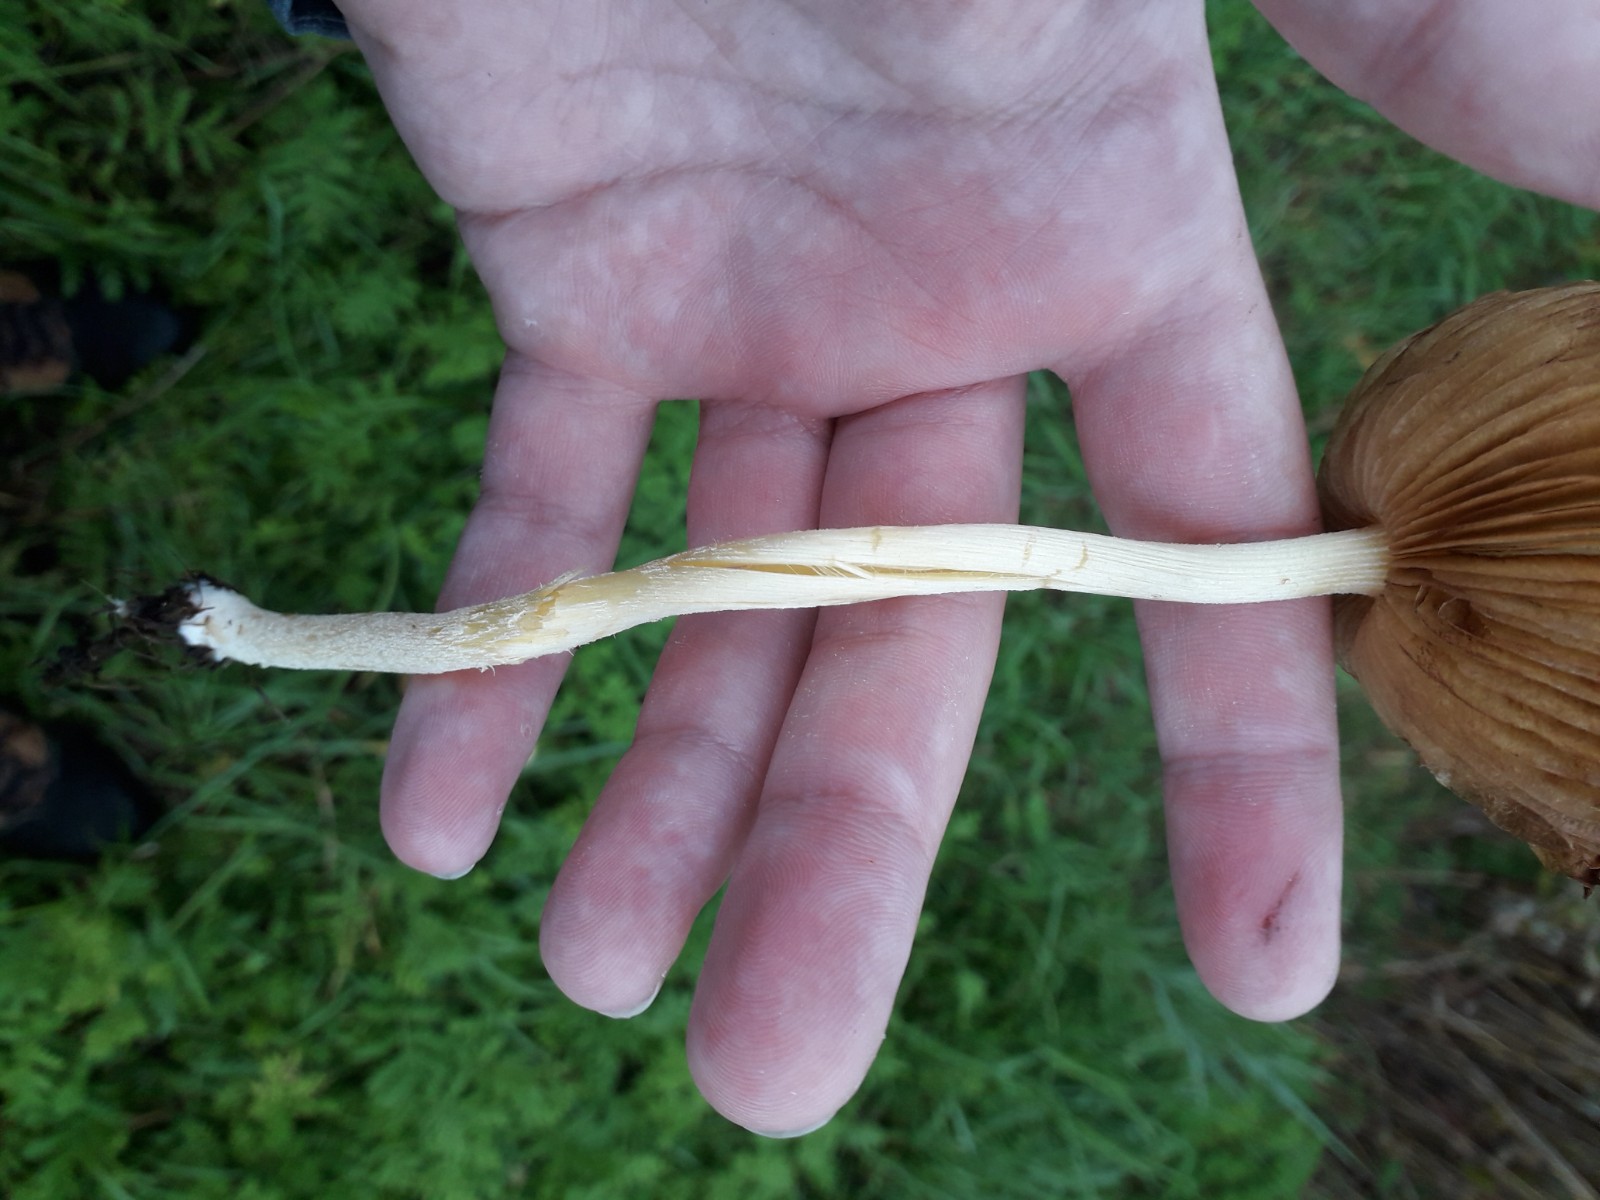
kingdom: Fungi
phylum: Basidiomycota
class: Agaricomycetes
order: Agaricales
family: Bolbitiaceae
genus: Bolbitius
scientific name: Bolbitius titubans
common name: almindelig gulhat
